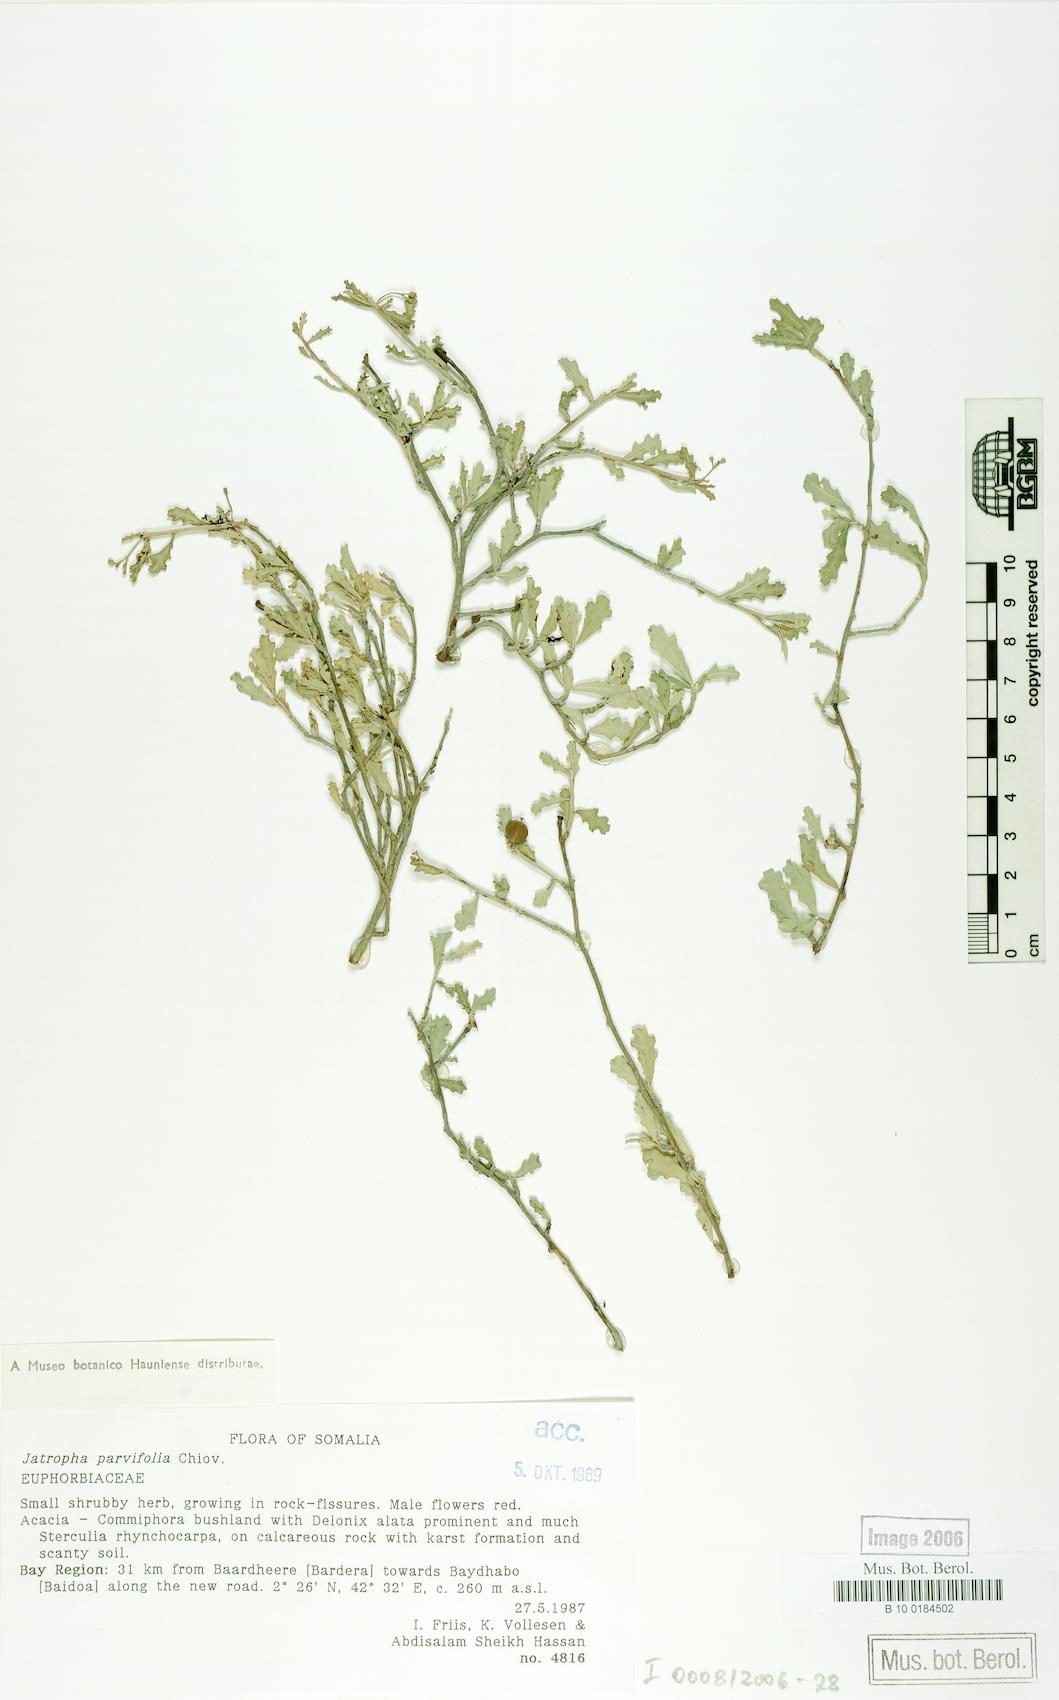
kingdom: Plantae
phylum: Tracheophyta
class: Magnoliopsida
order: Malpighiales
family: Euphorbiaceae
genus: Jatropha
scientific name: Jatropha rivae
